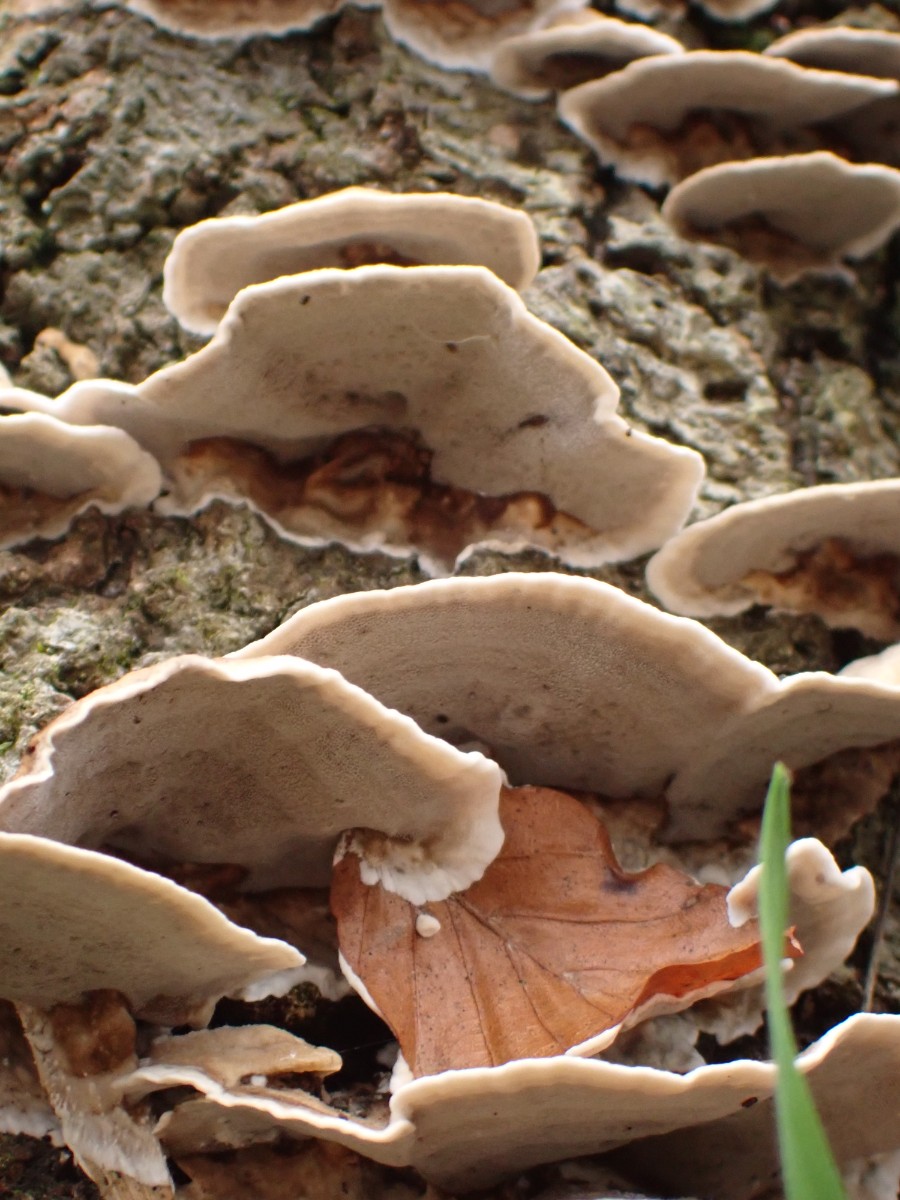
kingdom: Fungi
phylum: Basidiomycota
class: Agaricomycetes
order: Polyporales
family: Phanerochaetaceae
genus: Bjerkandera
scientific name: Bjerkandera adusta
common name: sveden sodporesvamp
